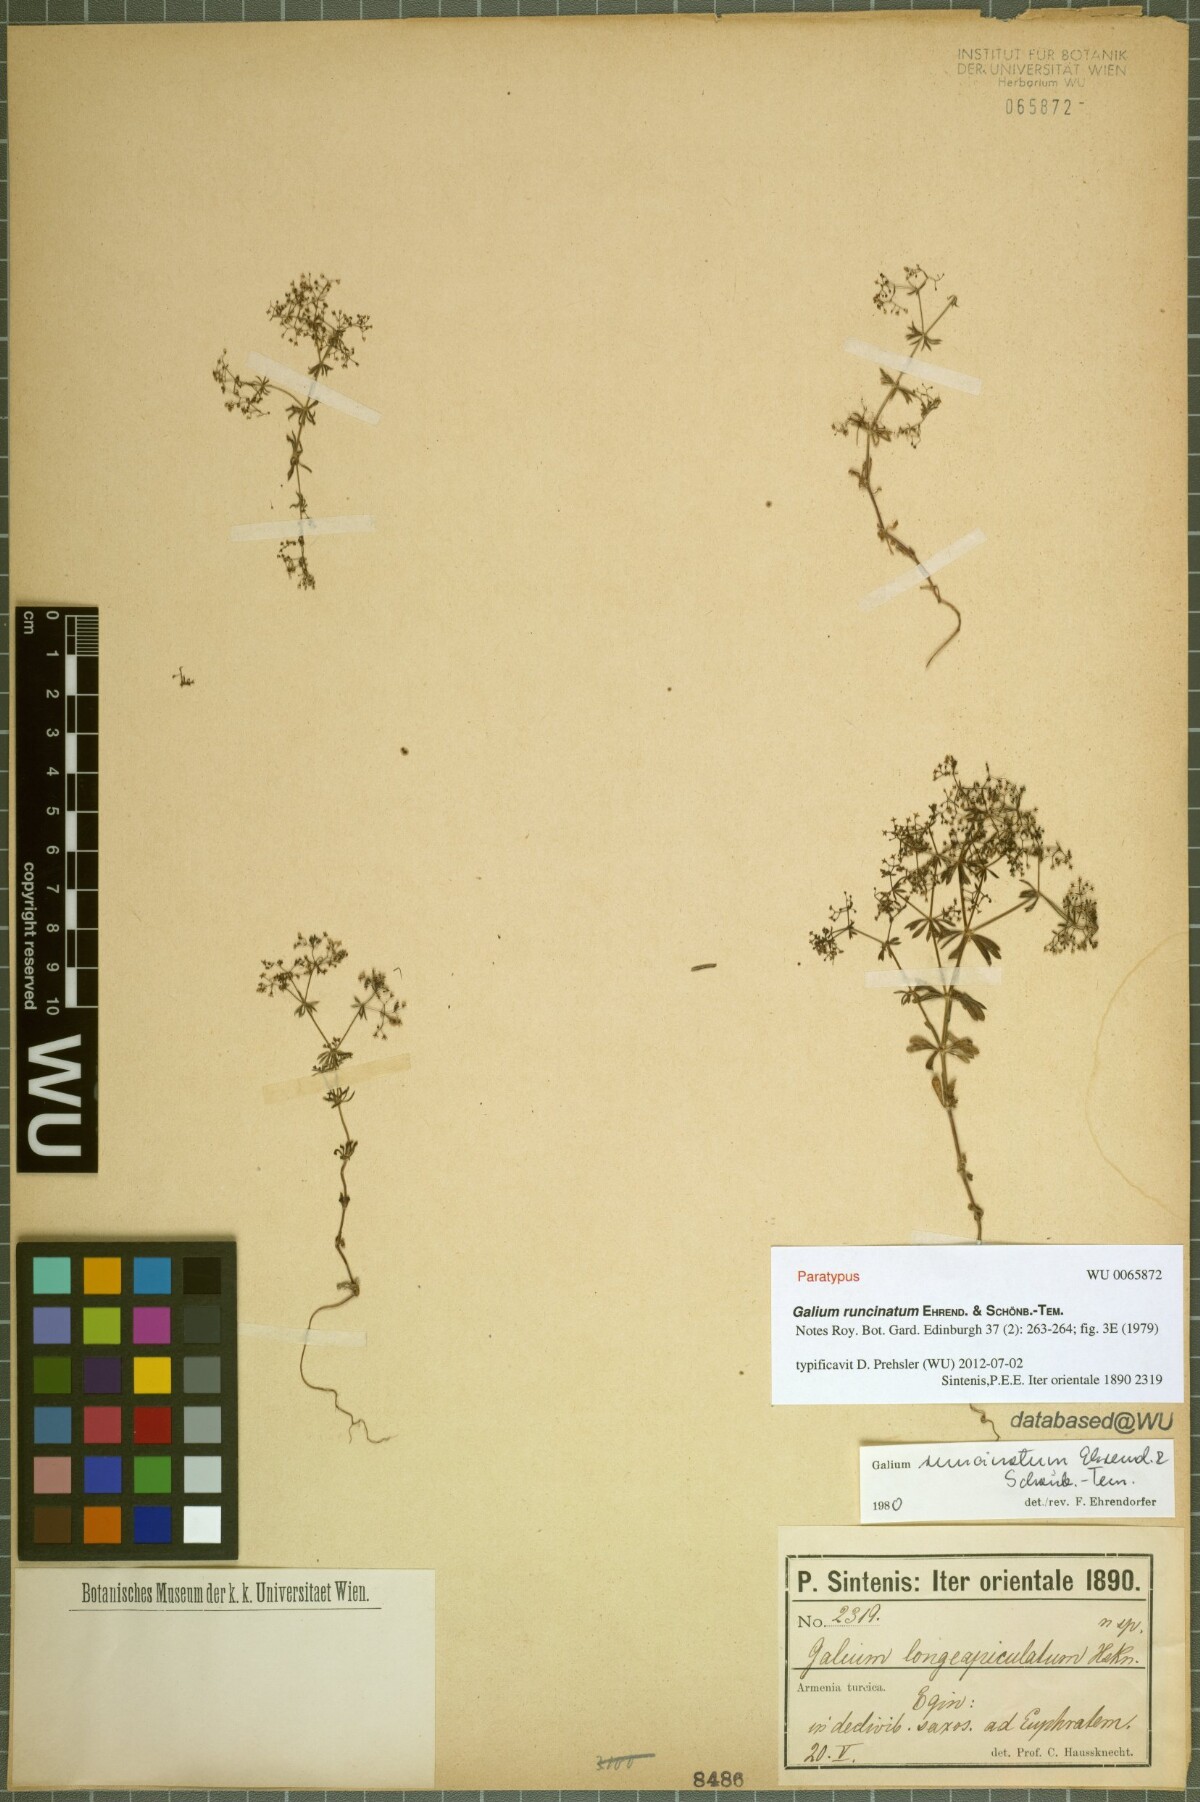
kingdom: Plantae
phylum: Tracheophyta
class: Magnoliopsida
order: Gentianales
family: Rubiaceae
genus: Galium
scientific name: Galium runcinatum
